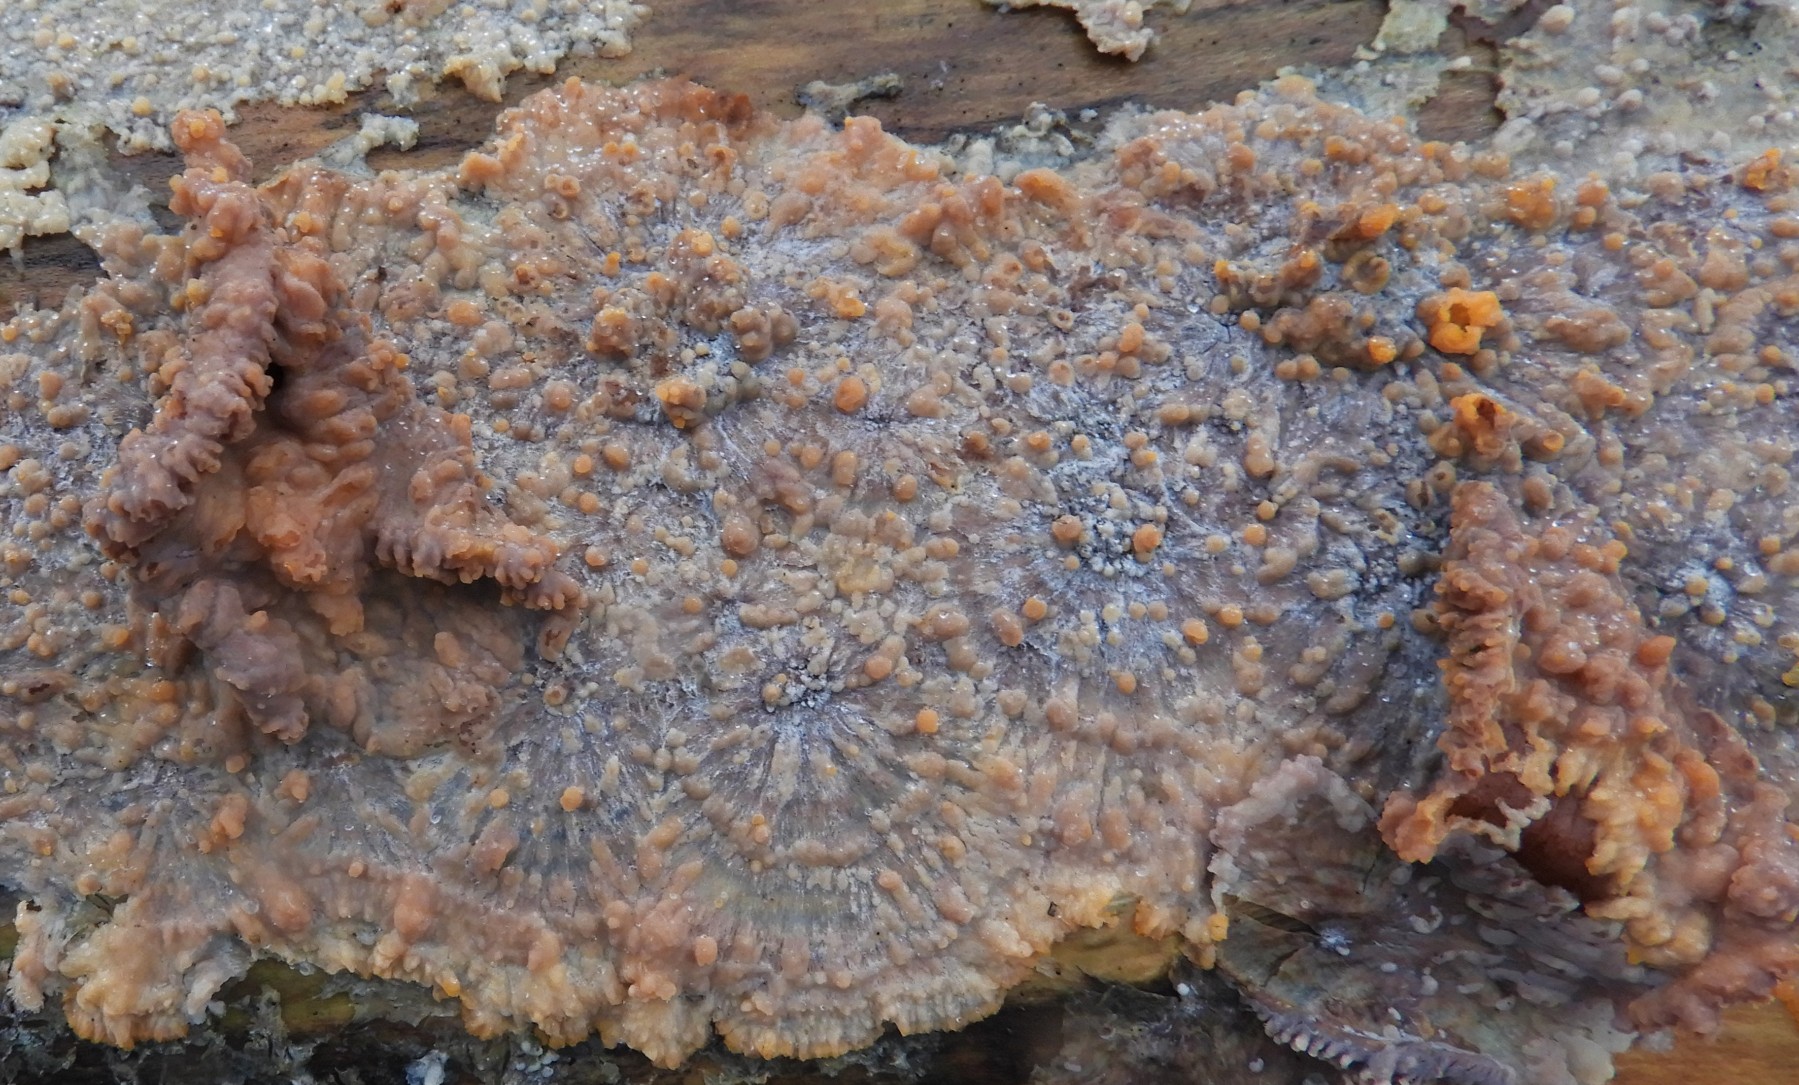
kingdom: Fungi
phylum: Basidiomycota
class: Agaricomycetes
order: Polyporales
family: Meruliaceae
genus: Phlebia
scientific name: Phlebia radiata
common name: stråle-åresvamp
